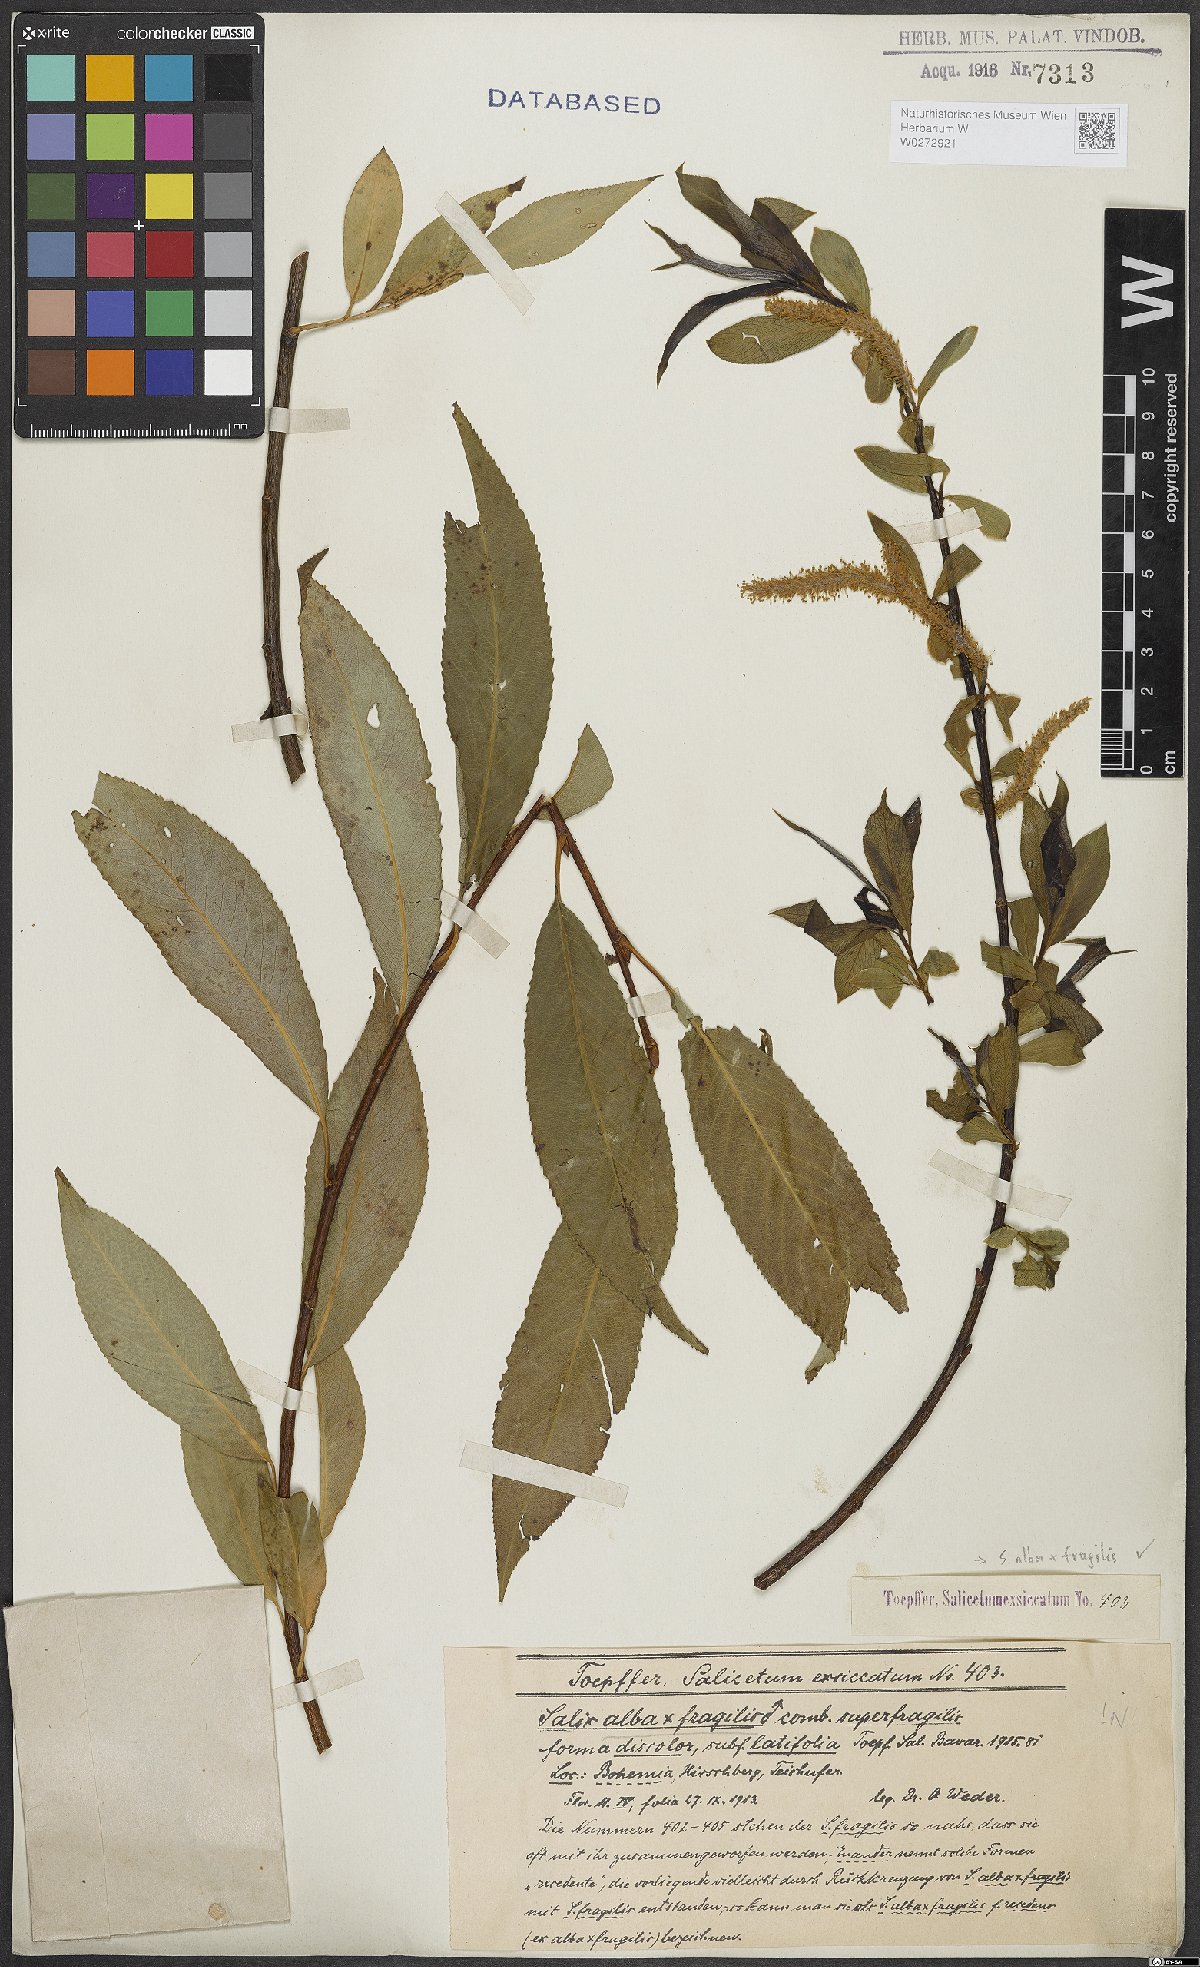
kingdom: Plantae
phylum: Tracheophyta
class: Magnoliopsida
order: Malpighiales
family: Salicaceae
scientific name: Salicaceae
